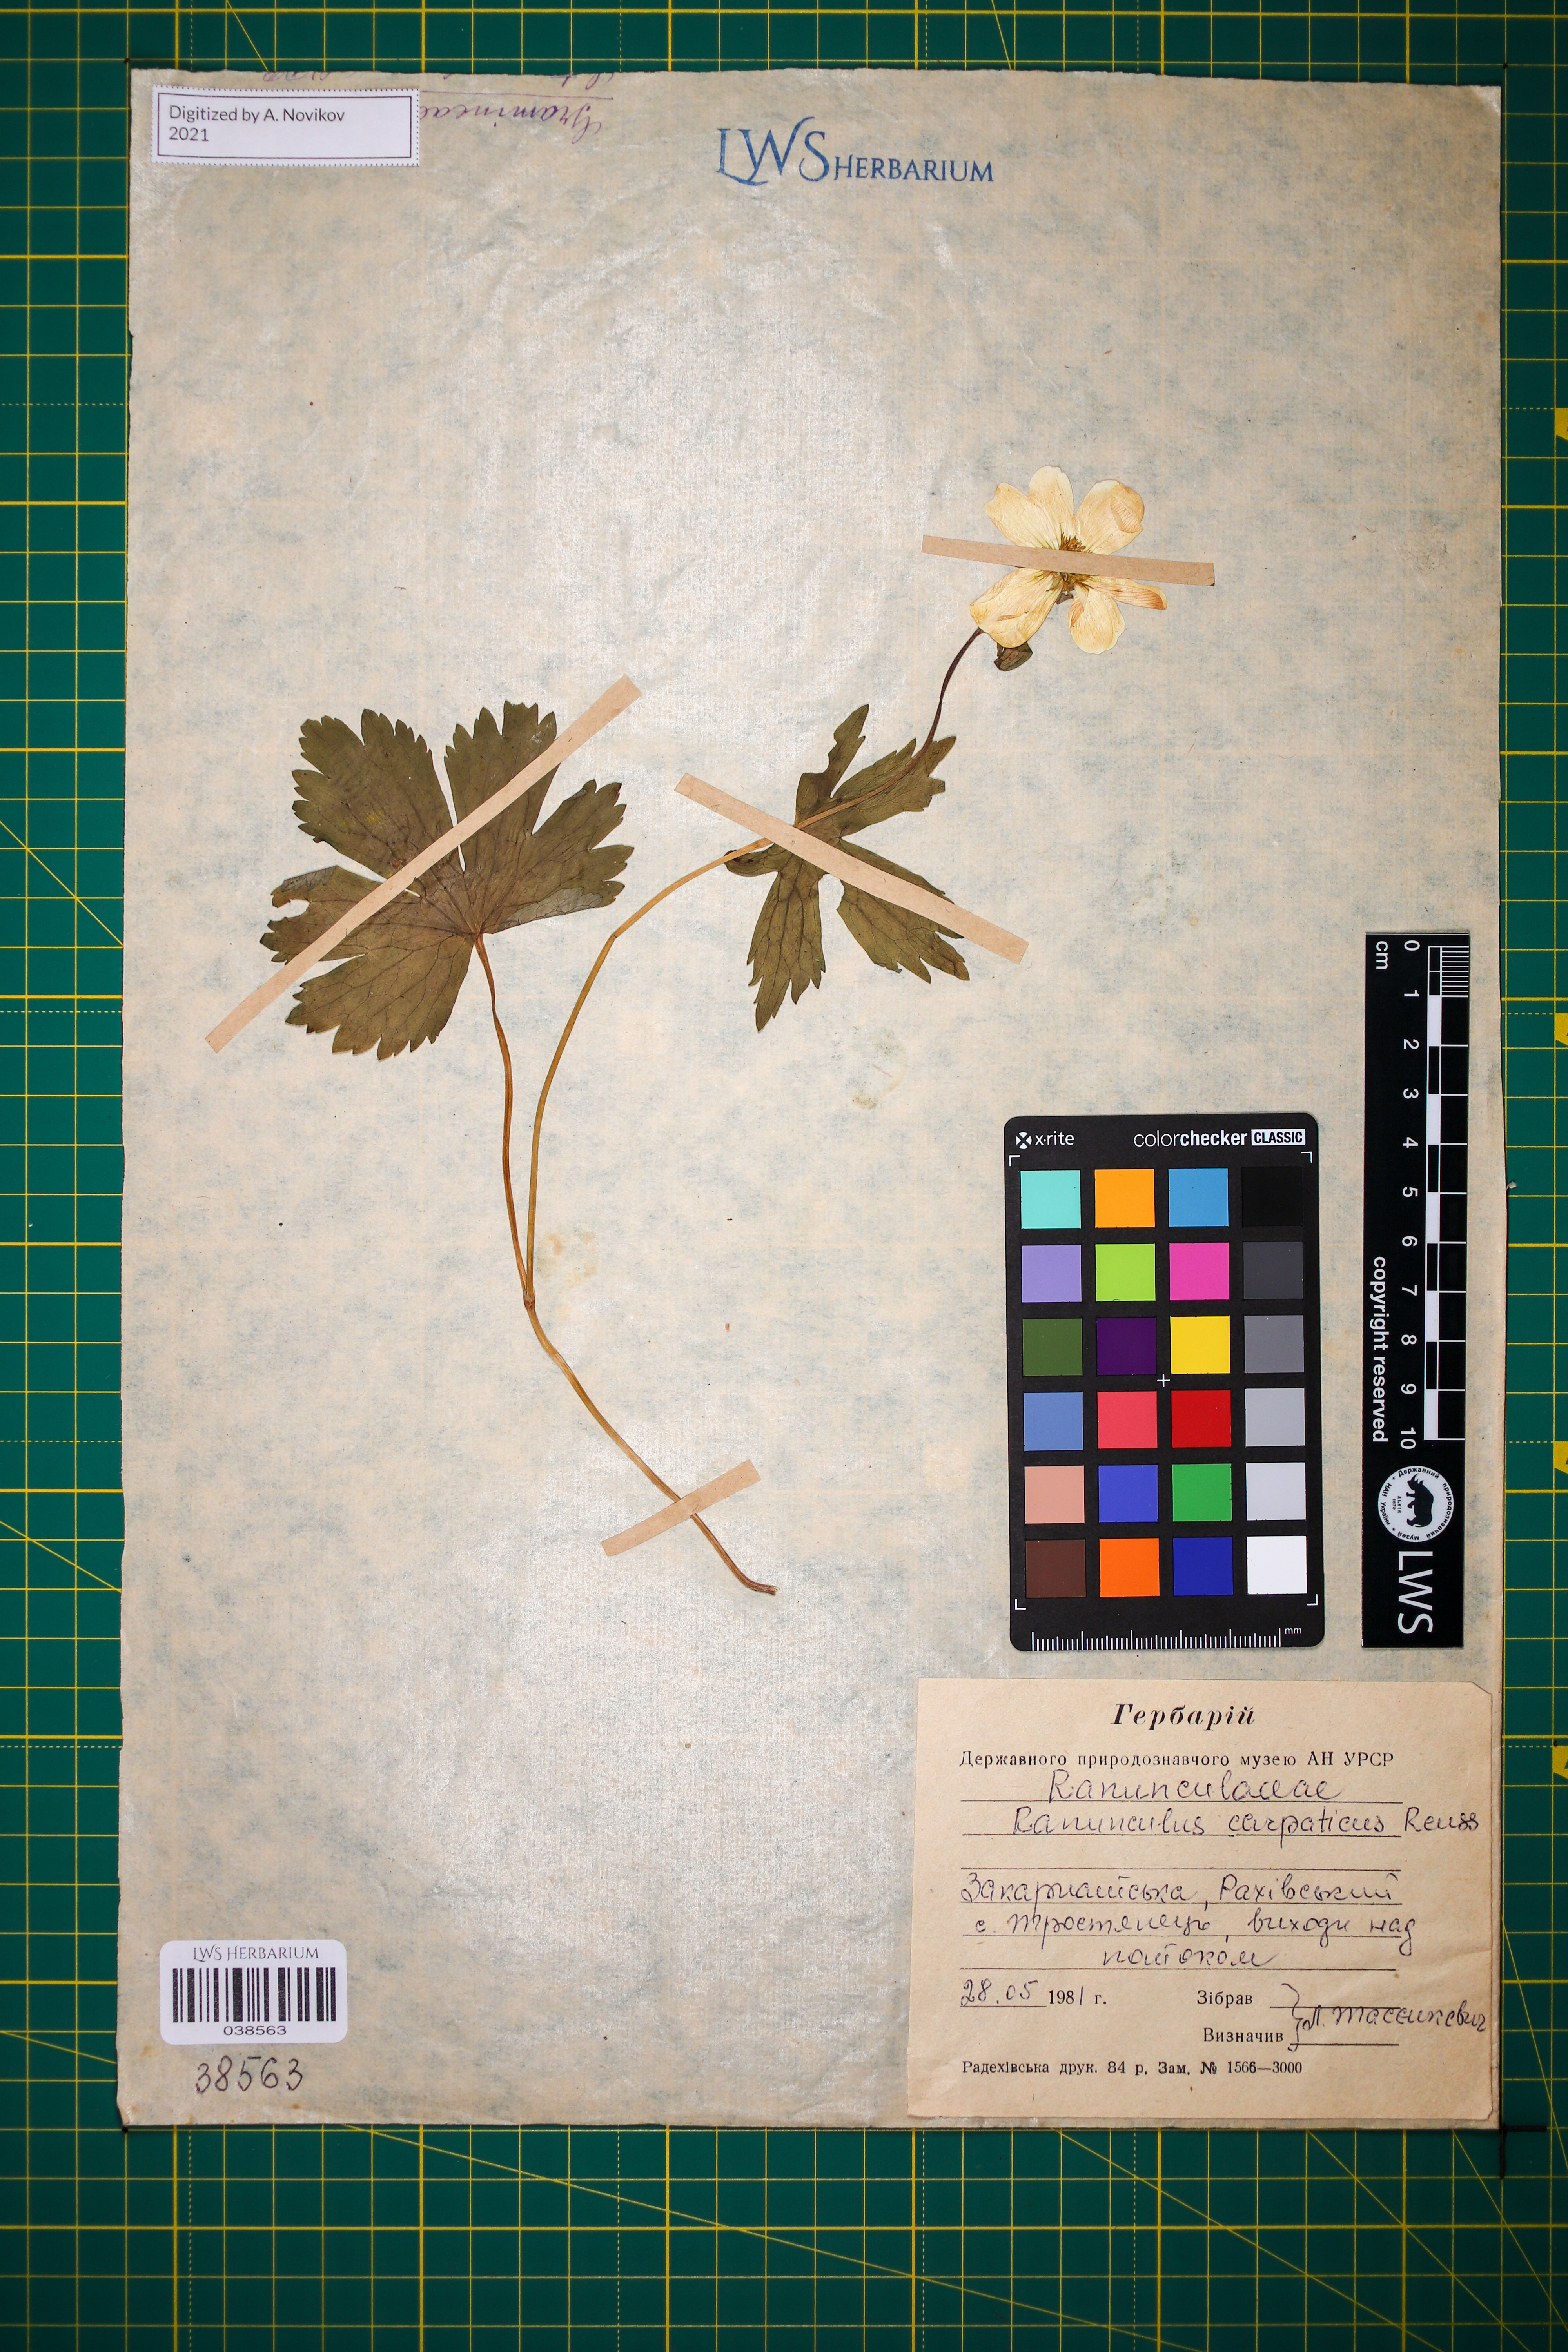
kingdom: Plantae
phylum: Tracheophyta
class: Magnoliopsida
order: Ranunculales
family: Ranunculaceae
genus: Ranunculus
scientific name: Ranunculus carpaticus
